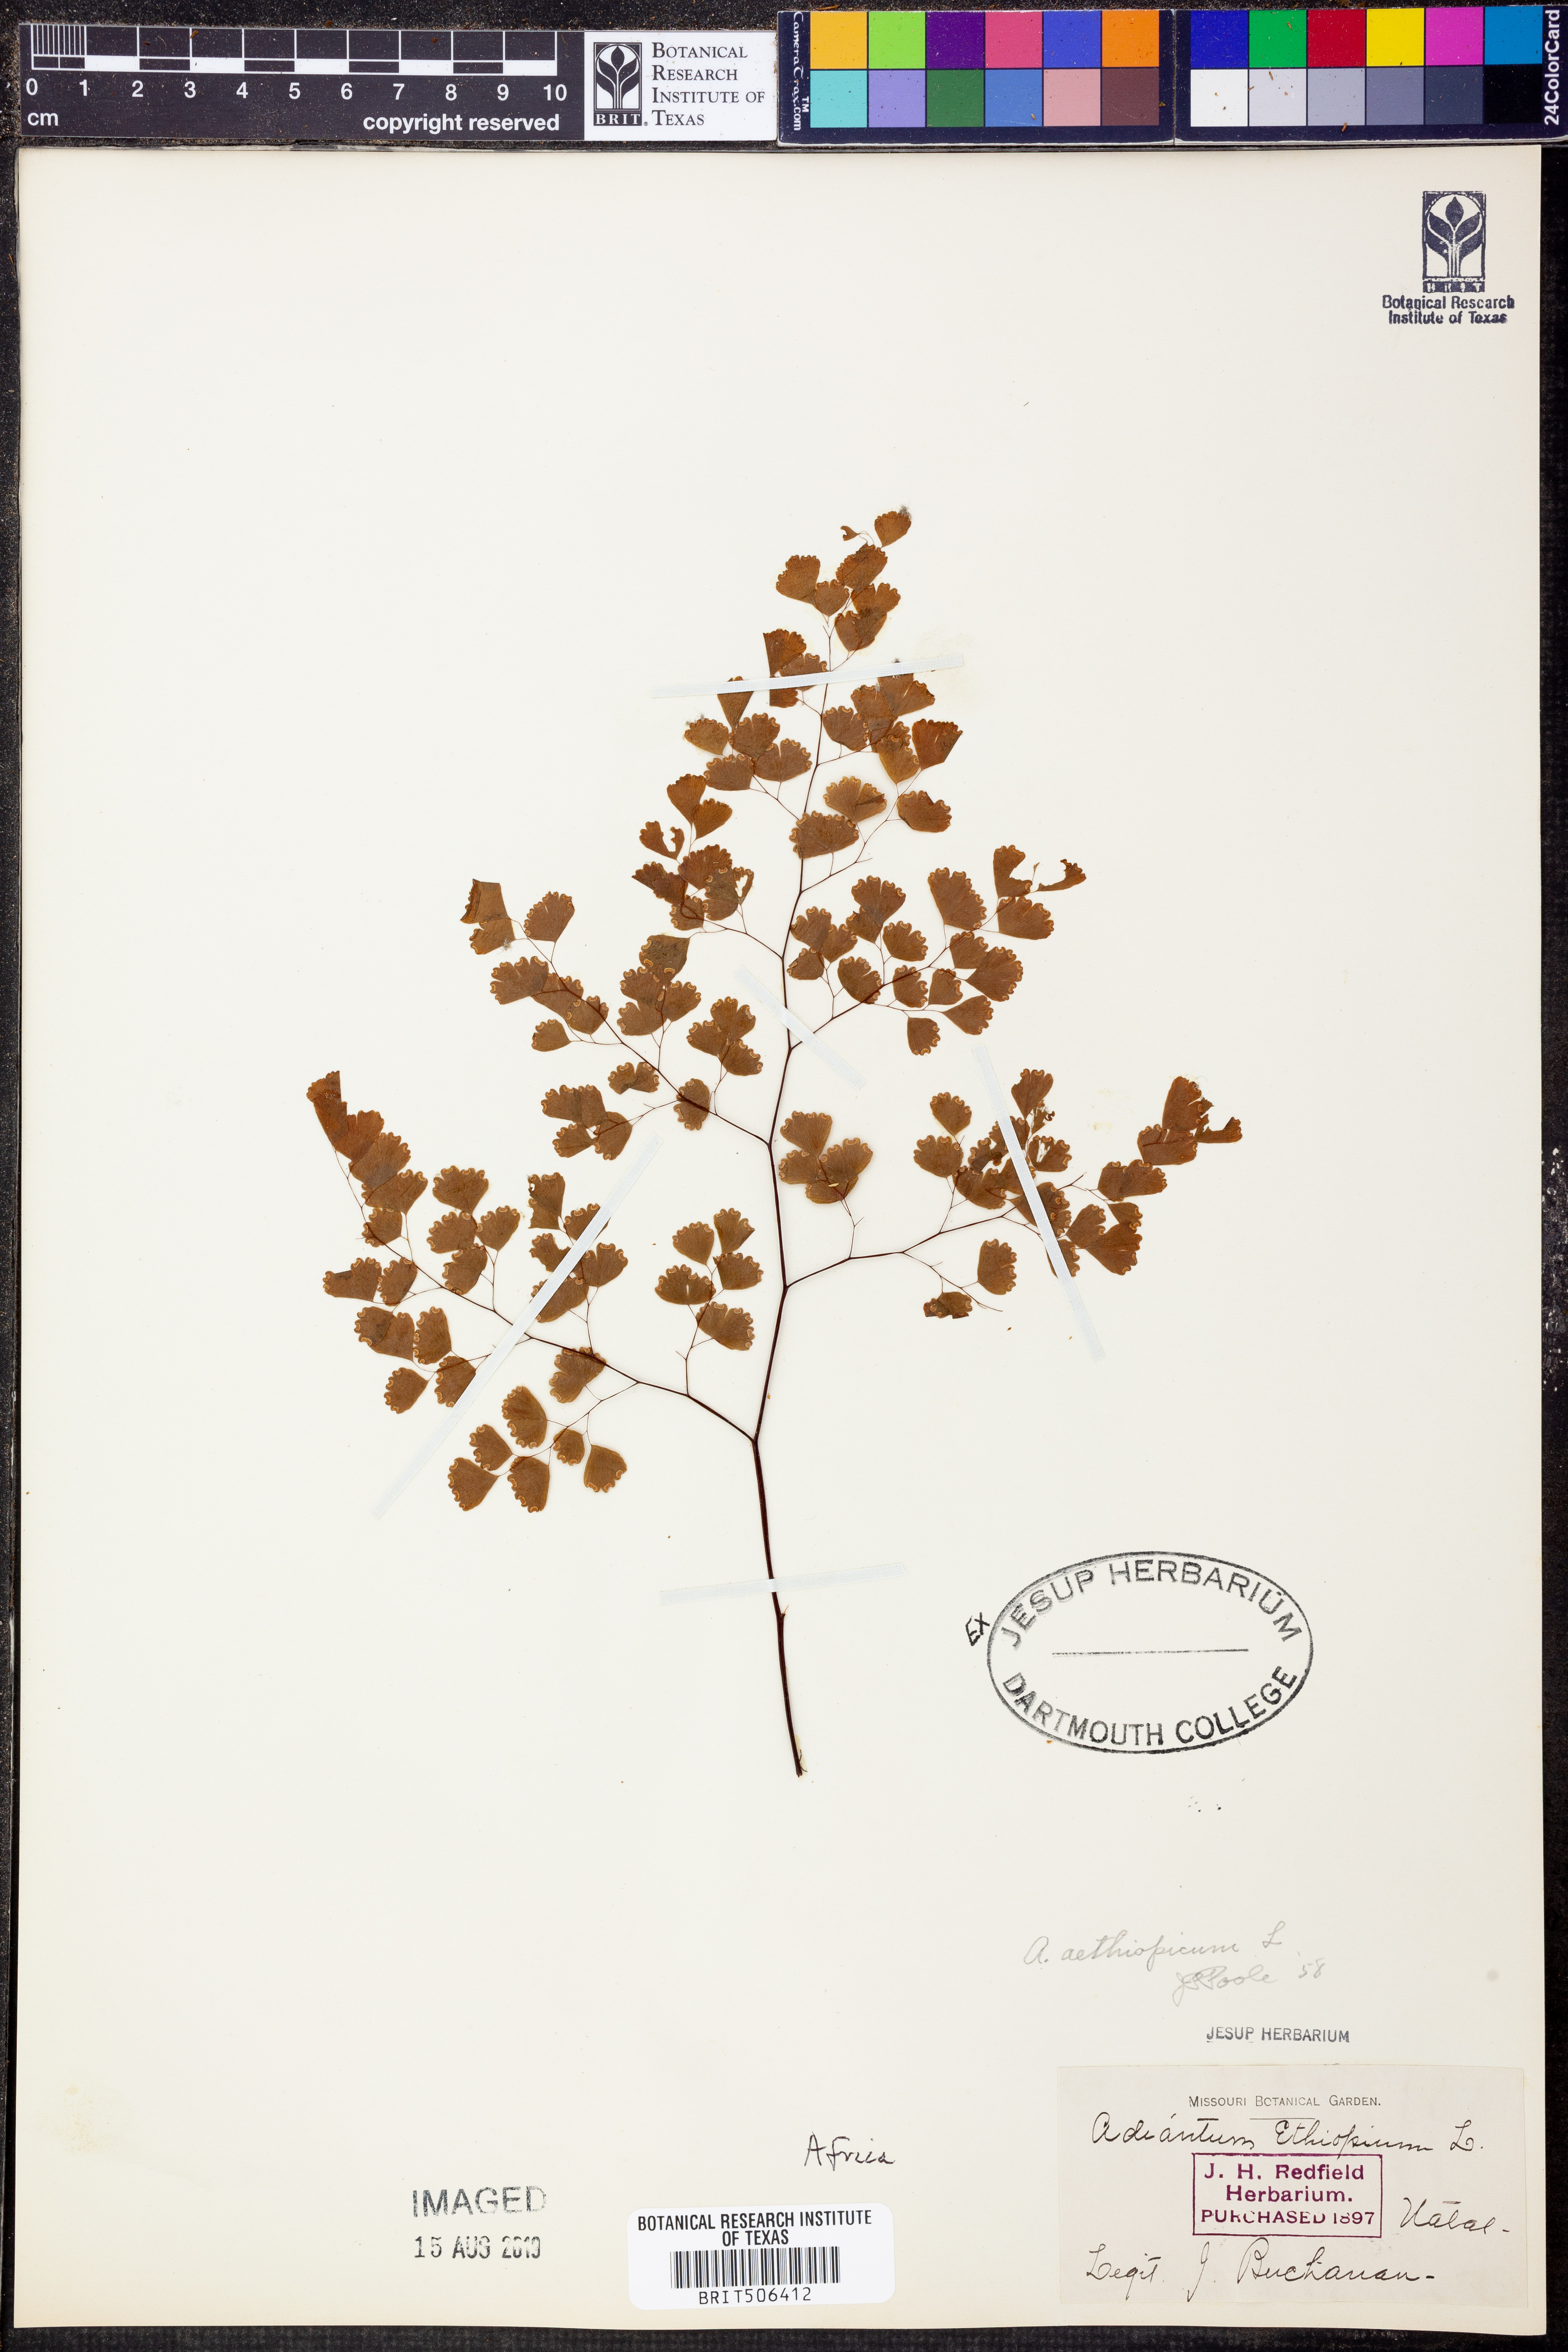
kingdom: Plantae
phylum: Tracheophyta
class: Polypodiopsida
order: Polypodiales
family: Pteridaceae
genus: Adiantum
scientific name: Adiantum aethiopicum
